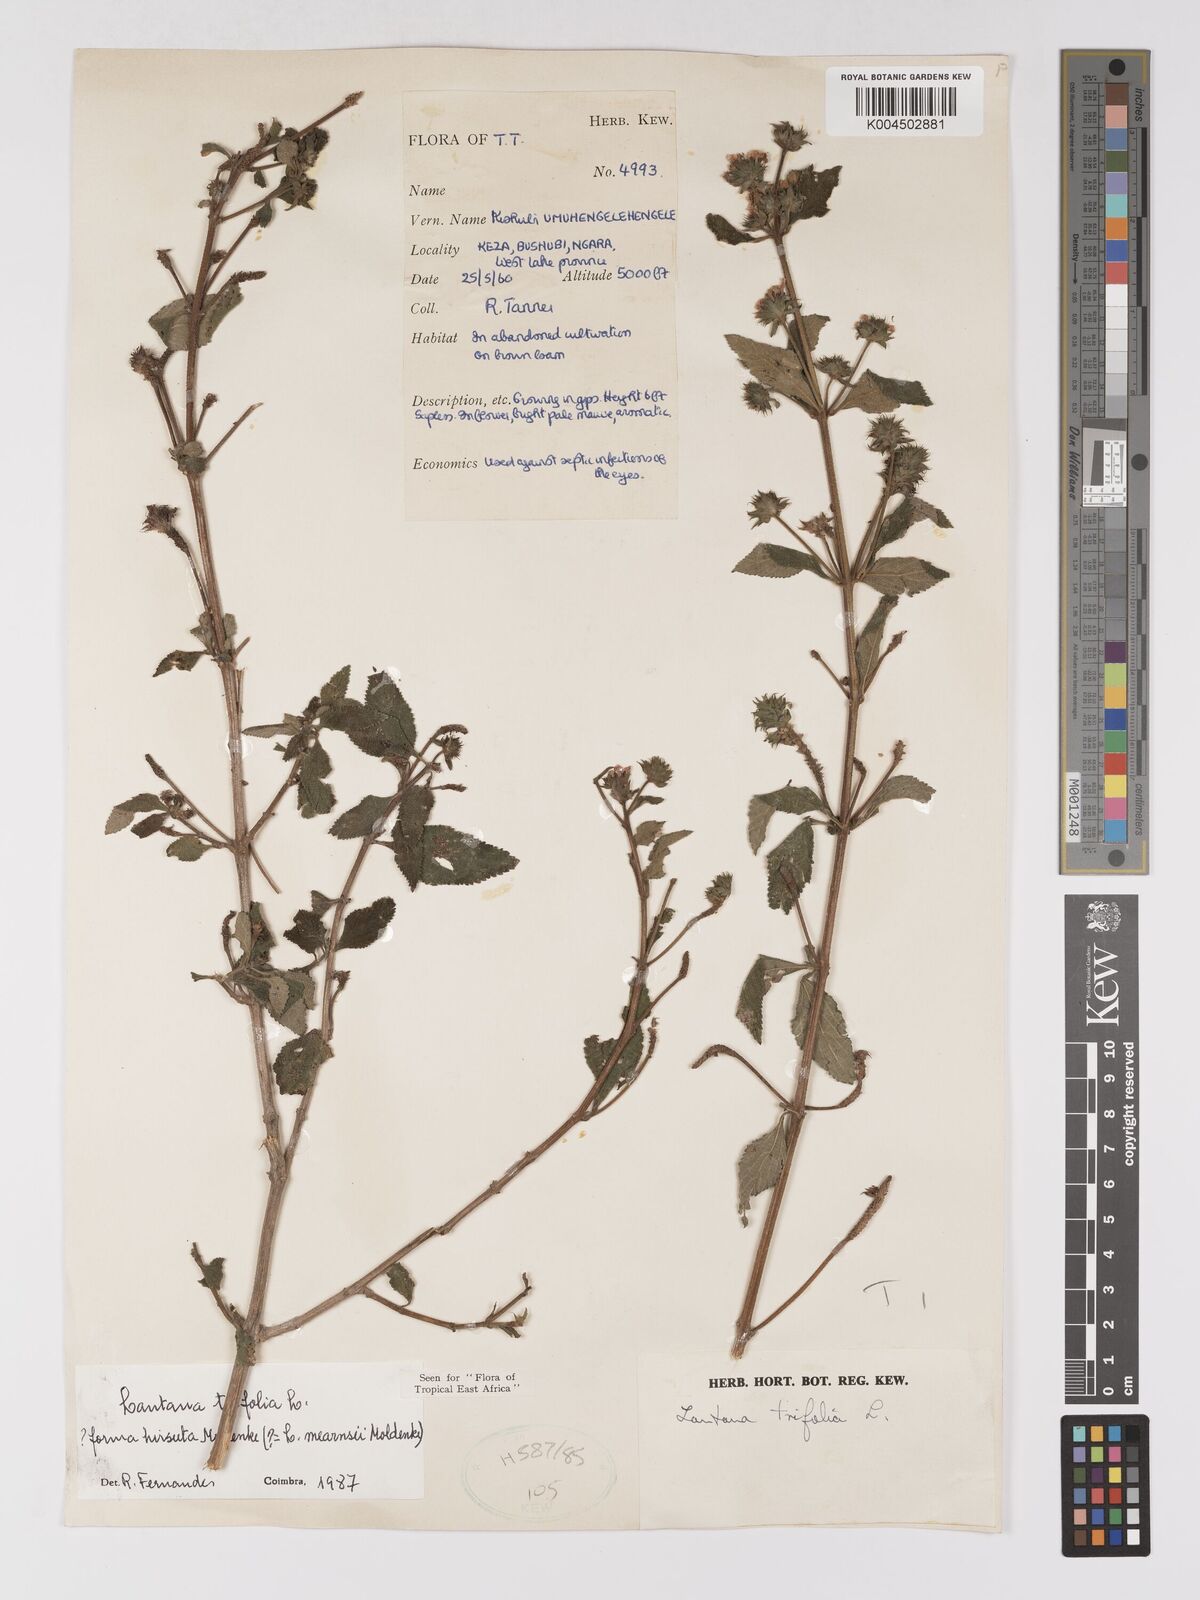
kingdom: Plantae
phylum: Tracheophyta
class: Magnoliopsida
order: Lamiales
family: Verbenaceae
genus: Lantana
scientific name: Lantana trifolia
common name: Sweet-sage
